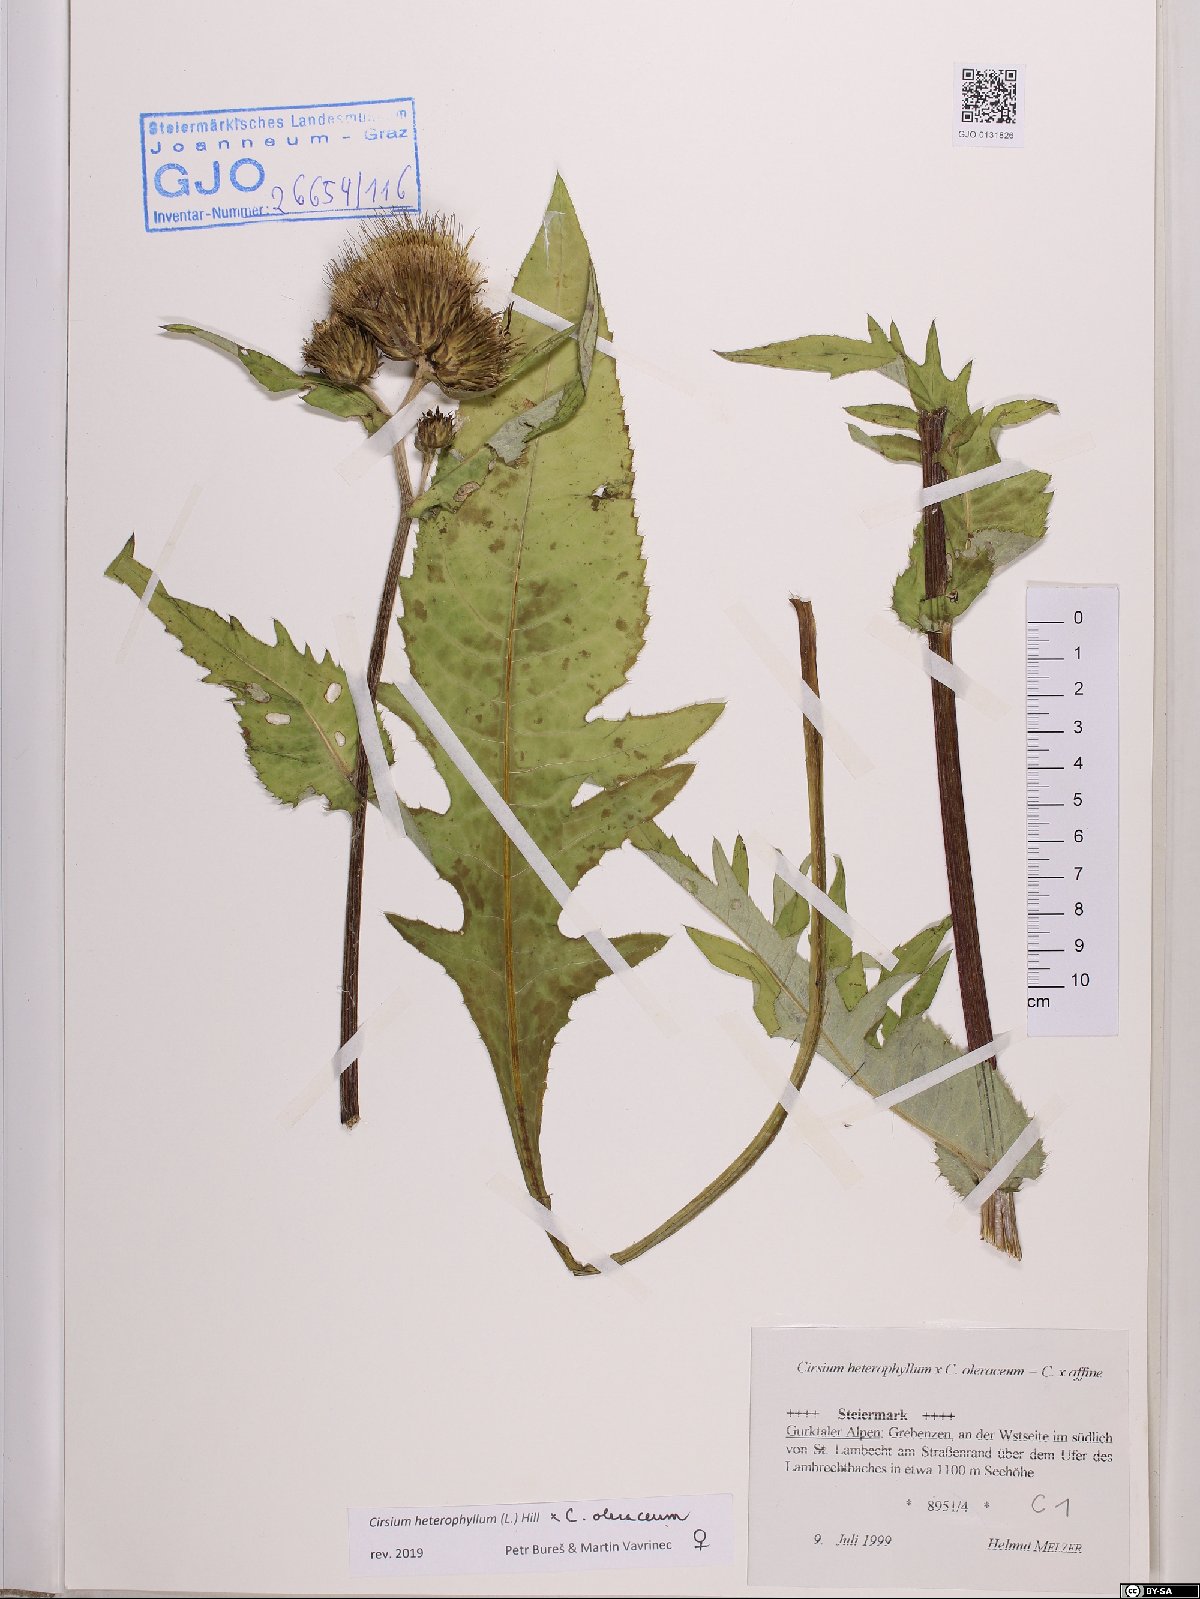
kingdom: Plantae
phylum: Tracheophyta
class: Magnoliopsida
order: Asterales
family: Asteraceae
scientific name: Asteraceae
